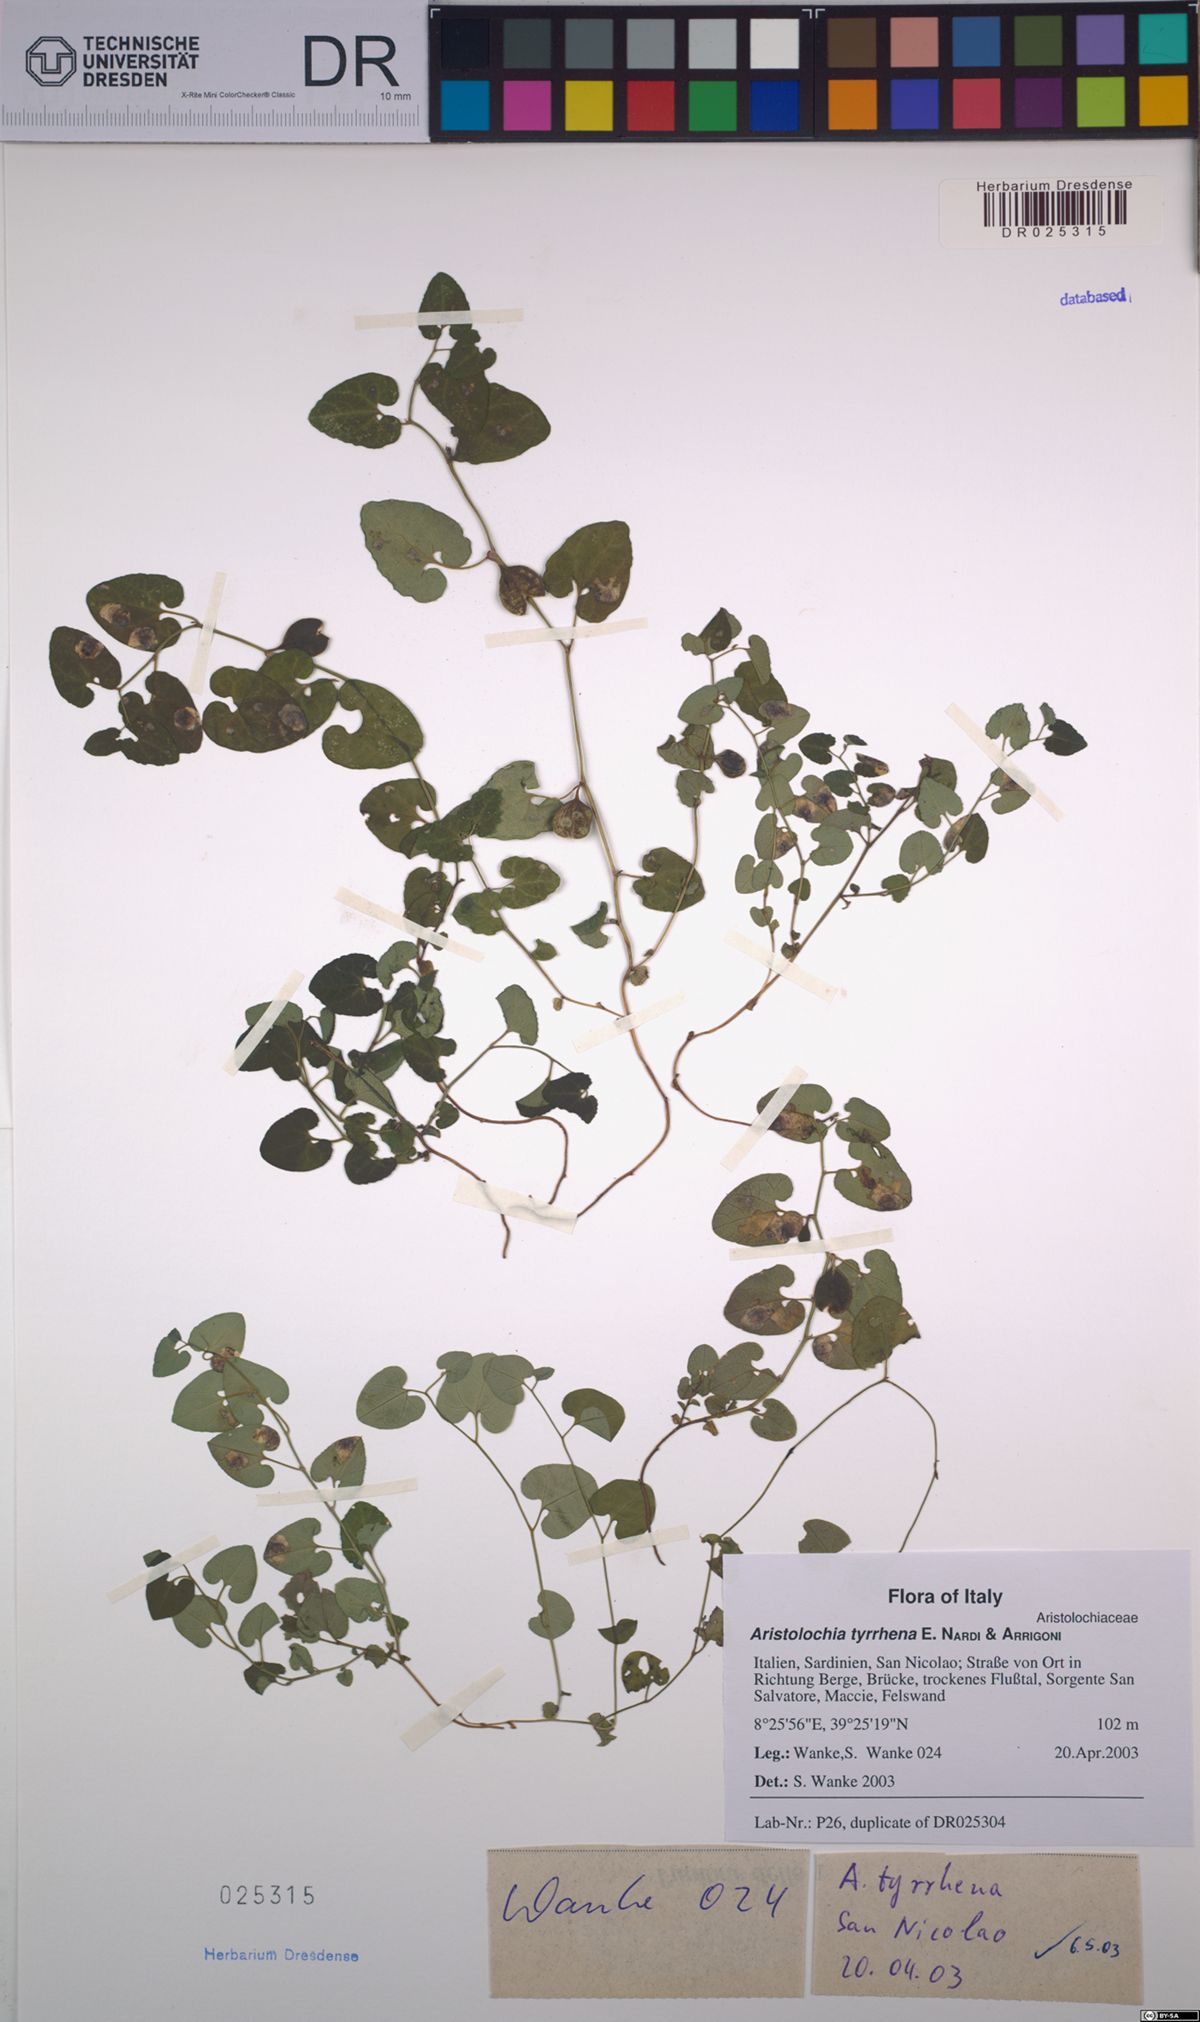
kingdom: Plantae
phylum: Tracheophyta
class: Magnoliopsida
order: Piperales
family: Aristolochiaceae
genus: Aristolochia
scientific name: Aristolochia tyrrhena
